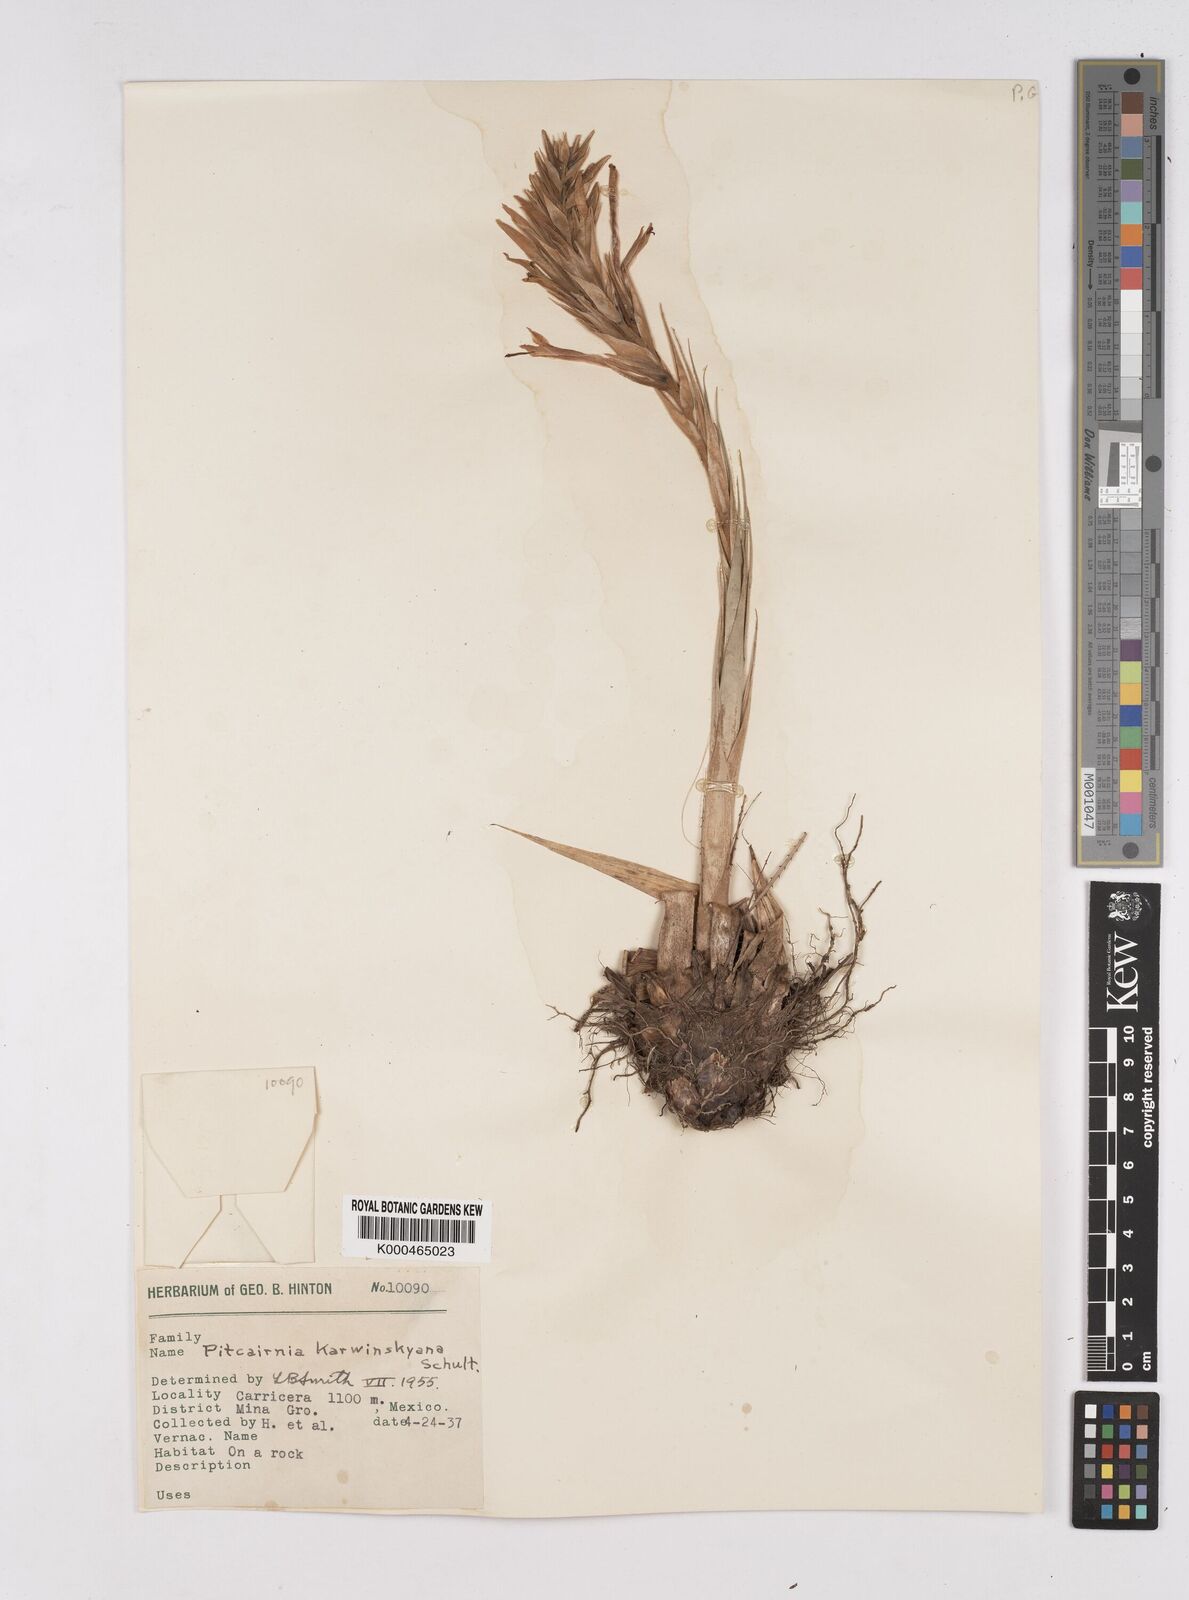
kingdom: Plantae
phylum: Tracheophyta
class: Liliopsida
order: Poales
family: Bromeliaceae
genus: Pitcairnia
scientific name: Pitcairnia karwinskyana
